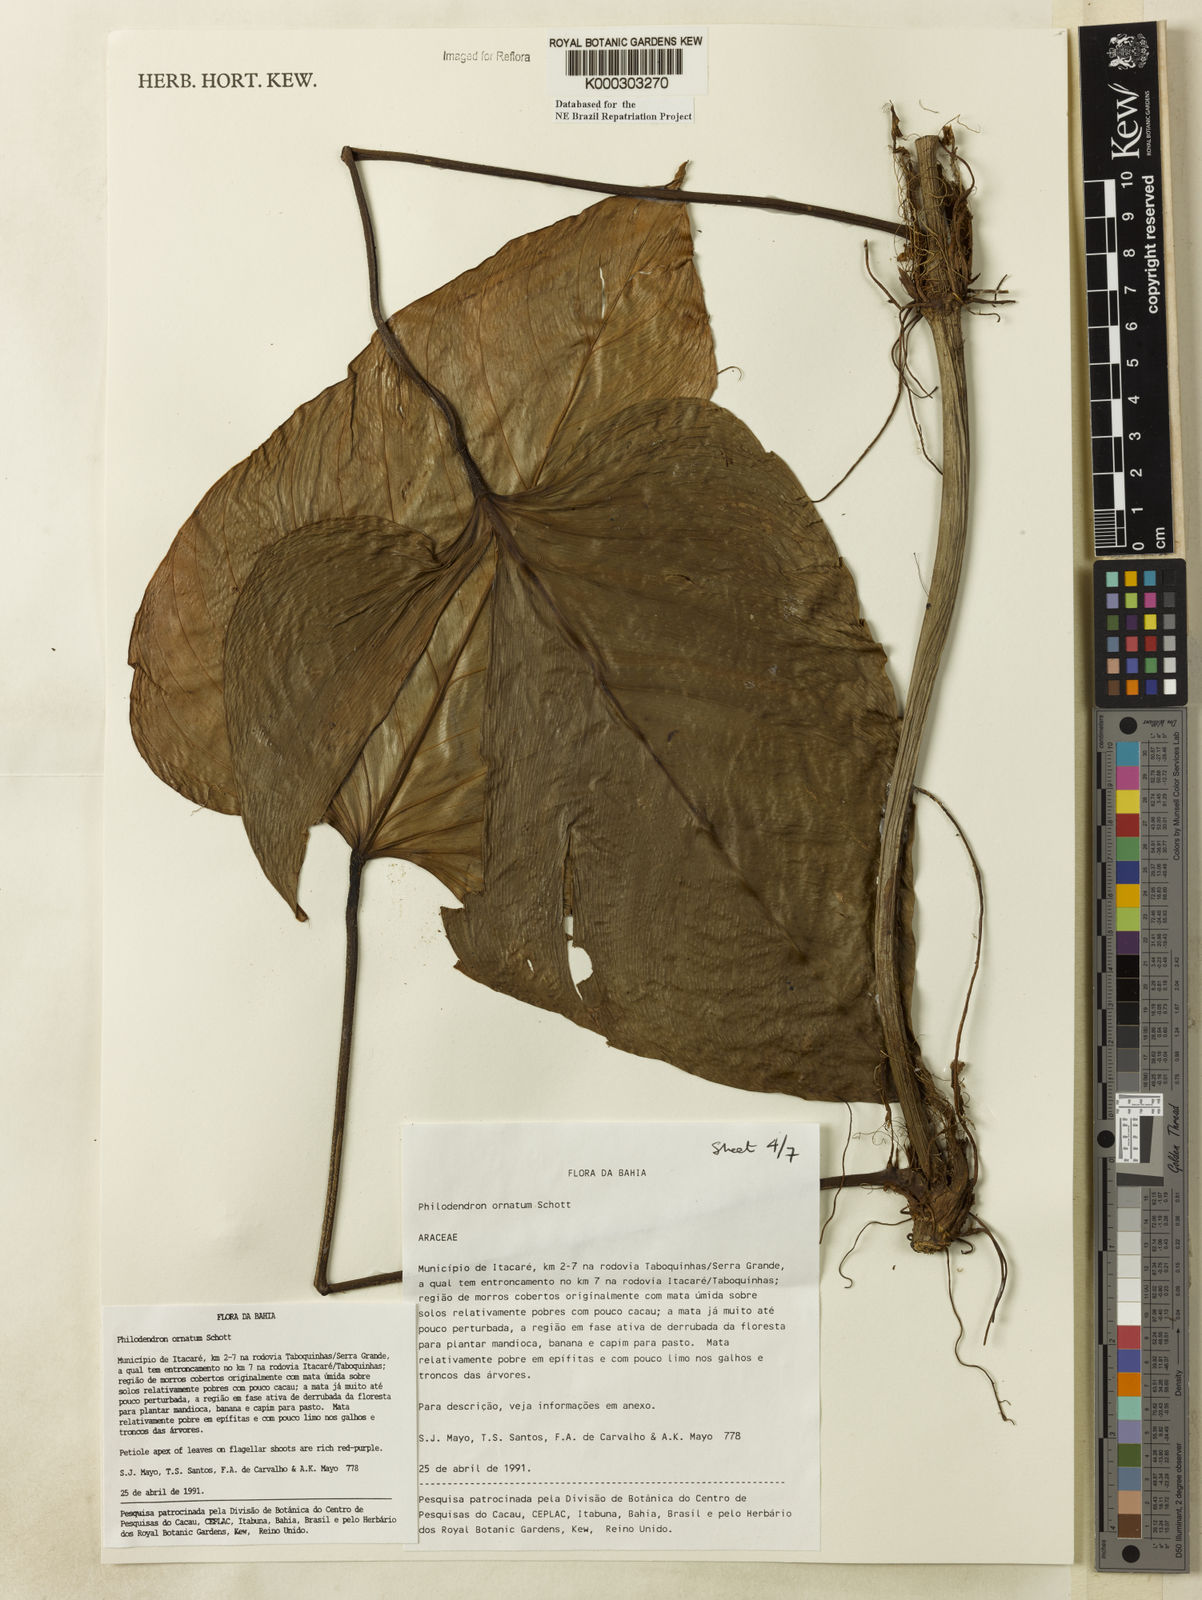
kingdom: Plantae
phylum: Tracheophyta
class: Liliopsida
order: Alismatales
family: Araceae
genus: Philodendron
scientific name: Philodendron ornatum
